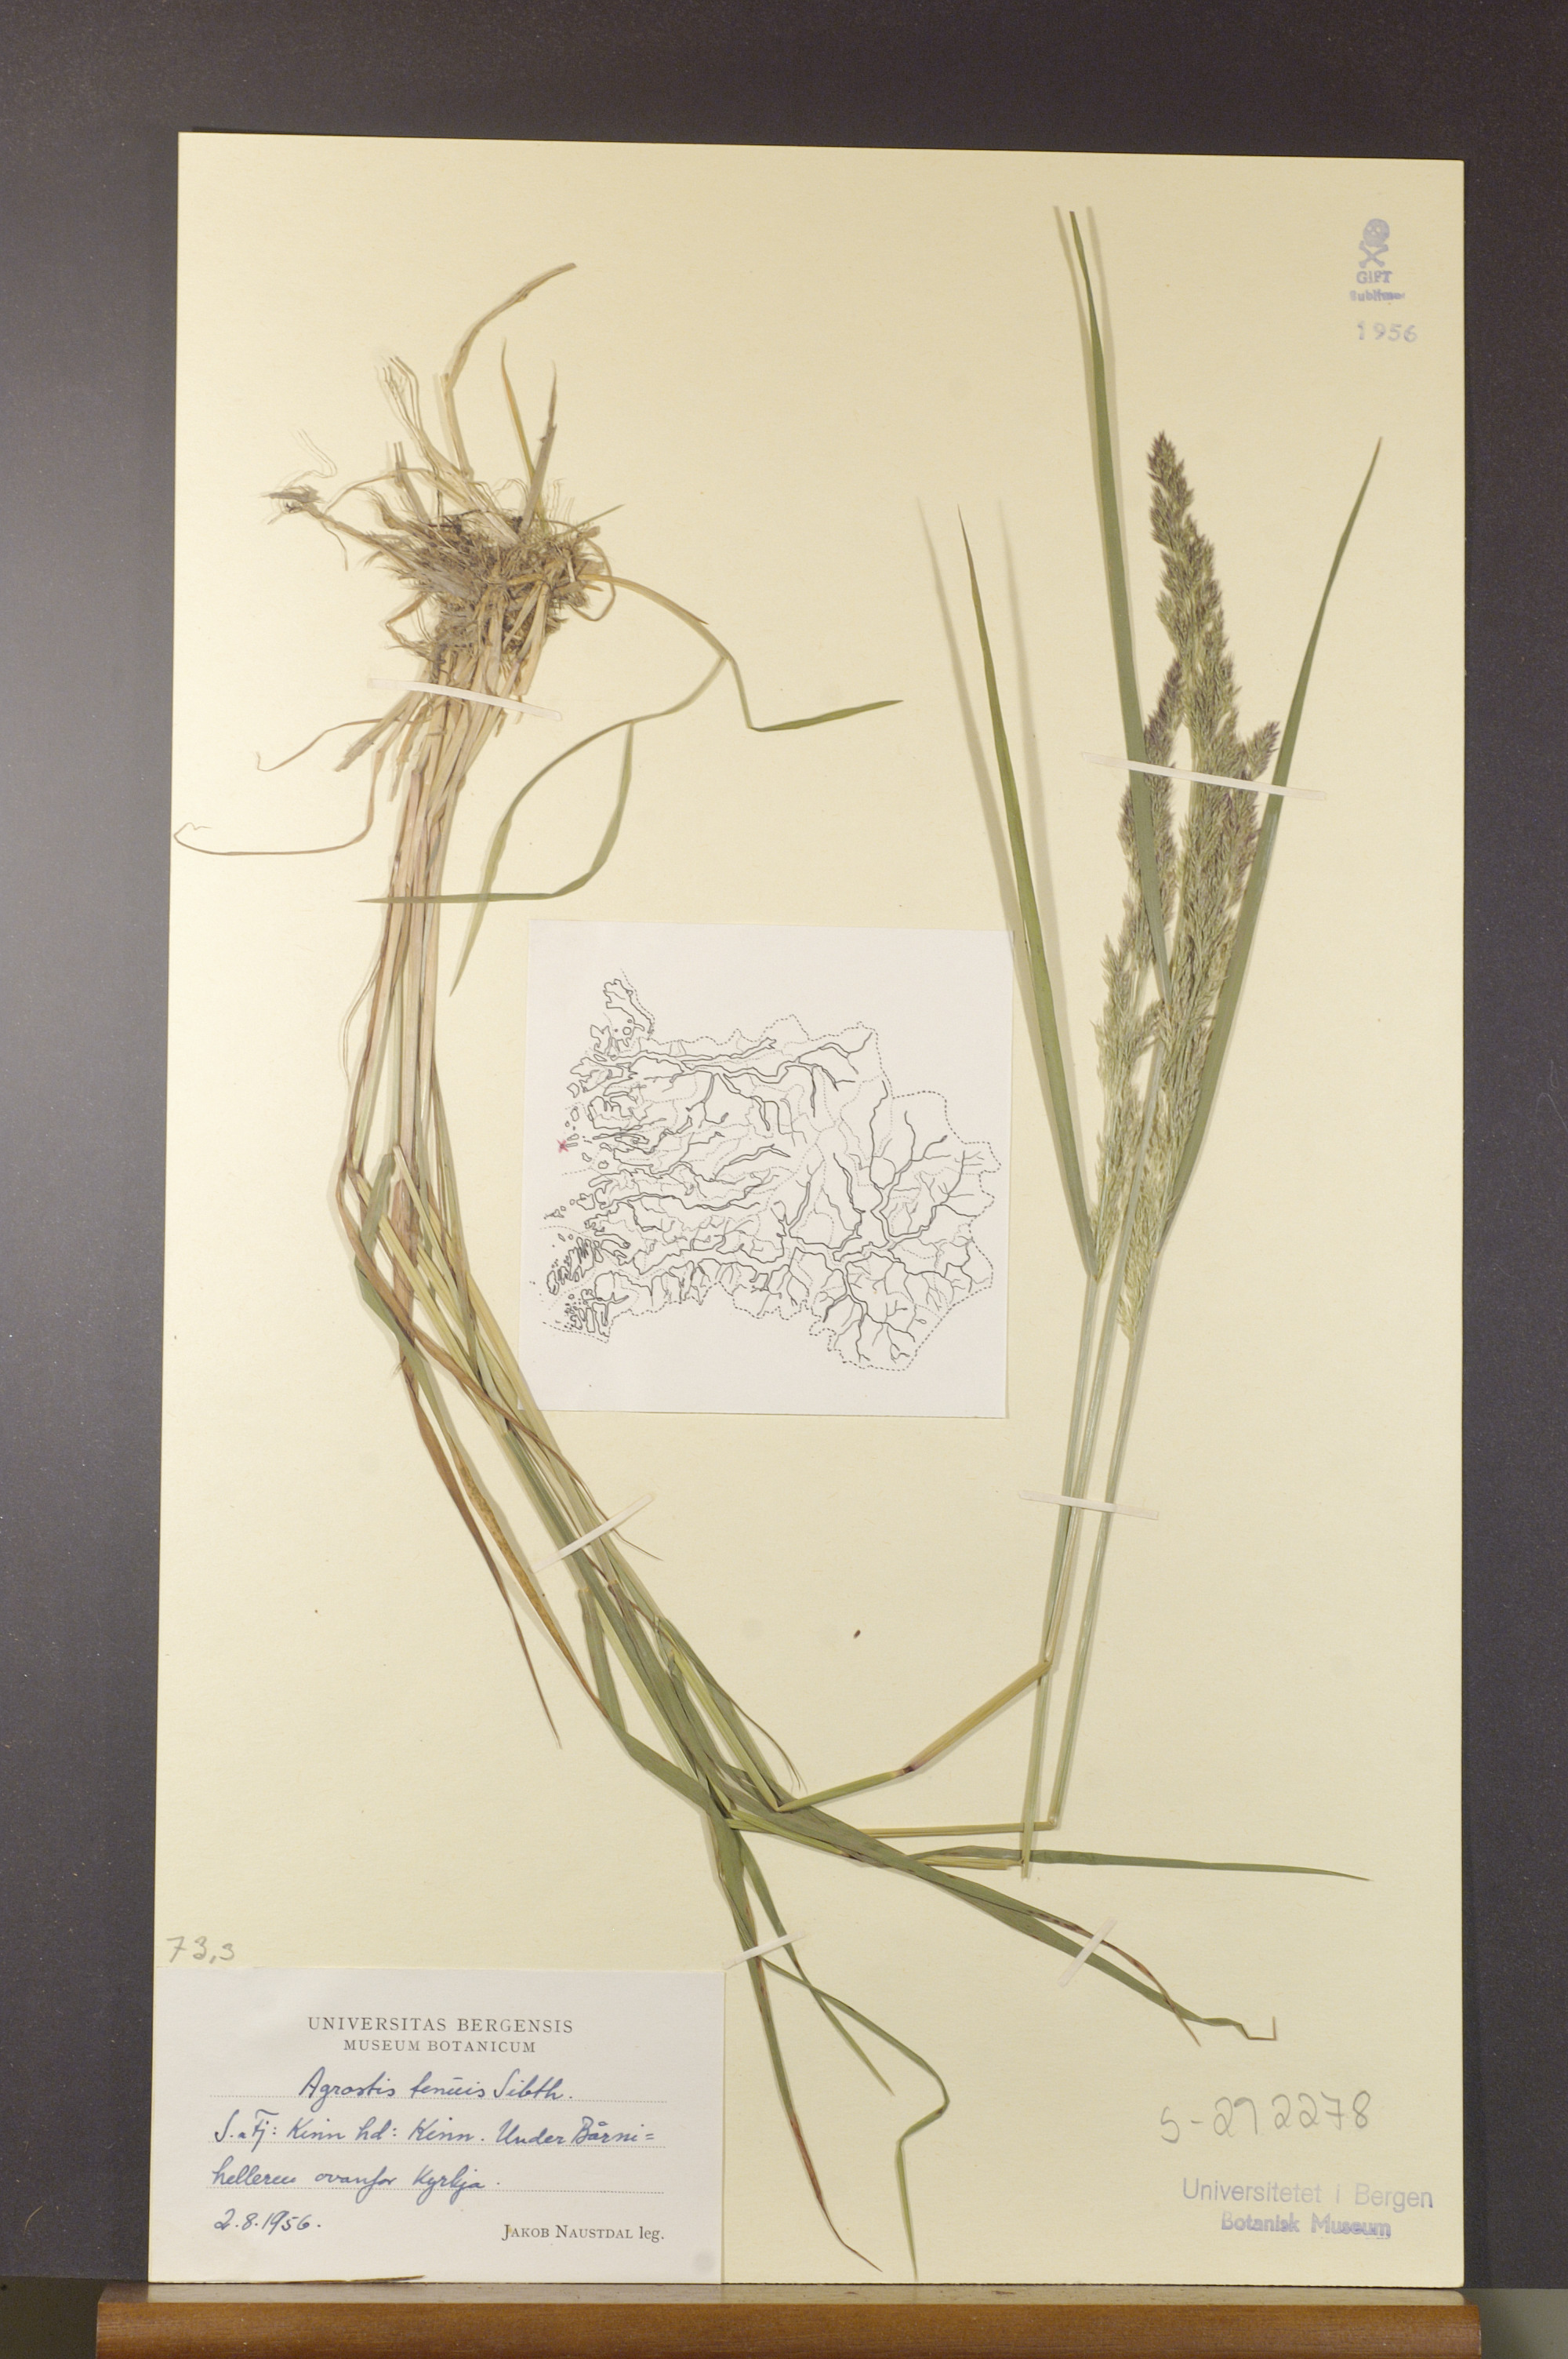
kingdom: Plantae
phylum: Tracheophyta
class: Liliopsida
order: Poales
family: Poaceae
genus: Agrostis
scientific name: Agrostis capillaris
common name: Colonial bentgrass
